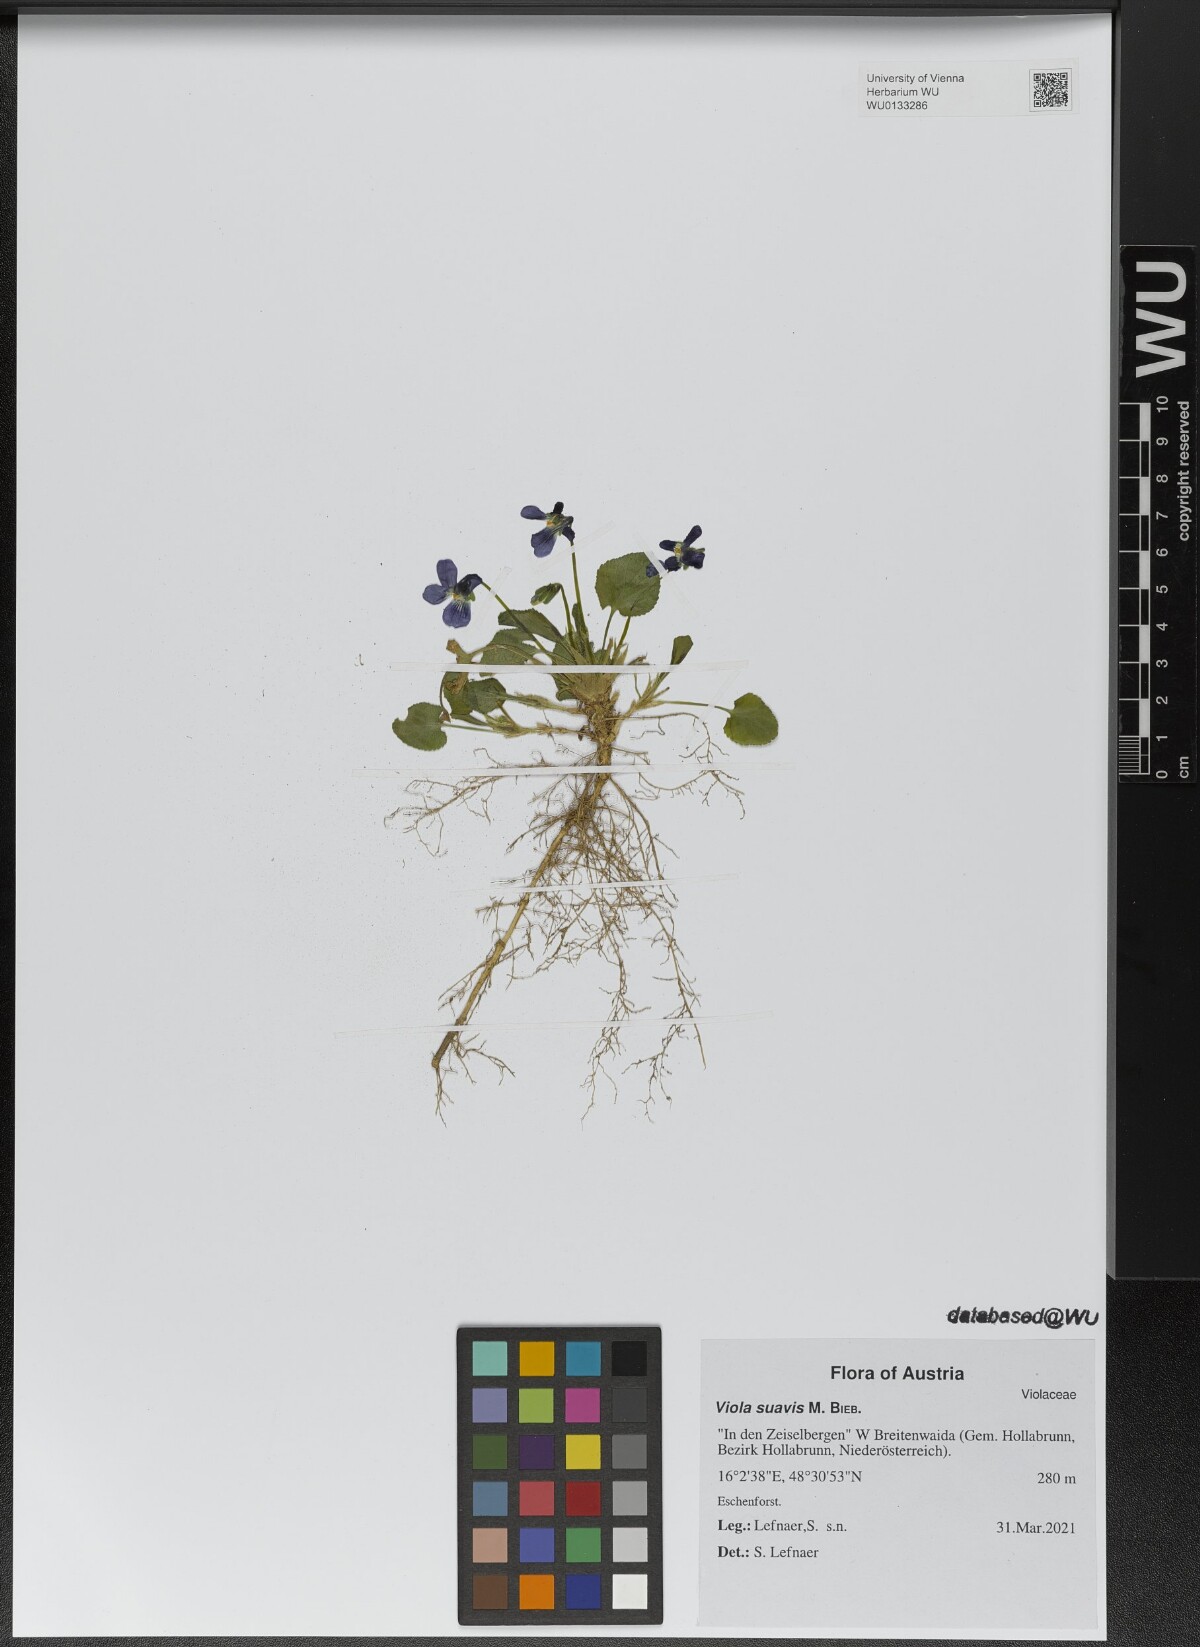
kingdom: Plantae
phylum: Tracheophyta
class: Magnoliopsida
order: Malpighiales
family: Violaceae
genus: Viola
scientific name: Viola suavis
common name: Russian violet
